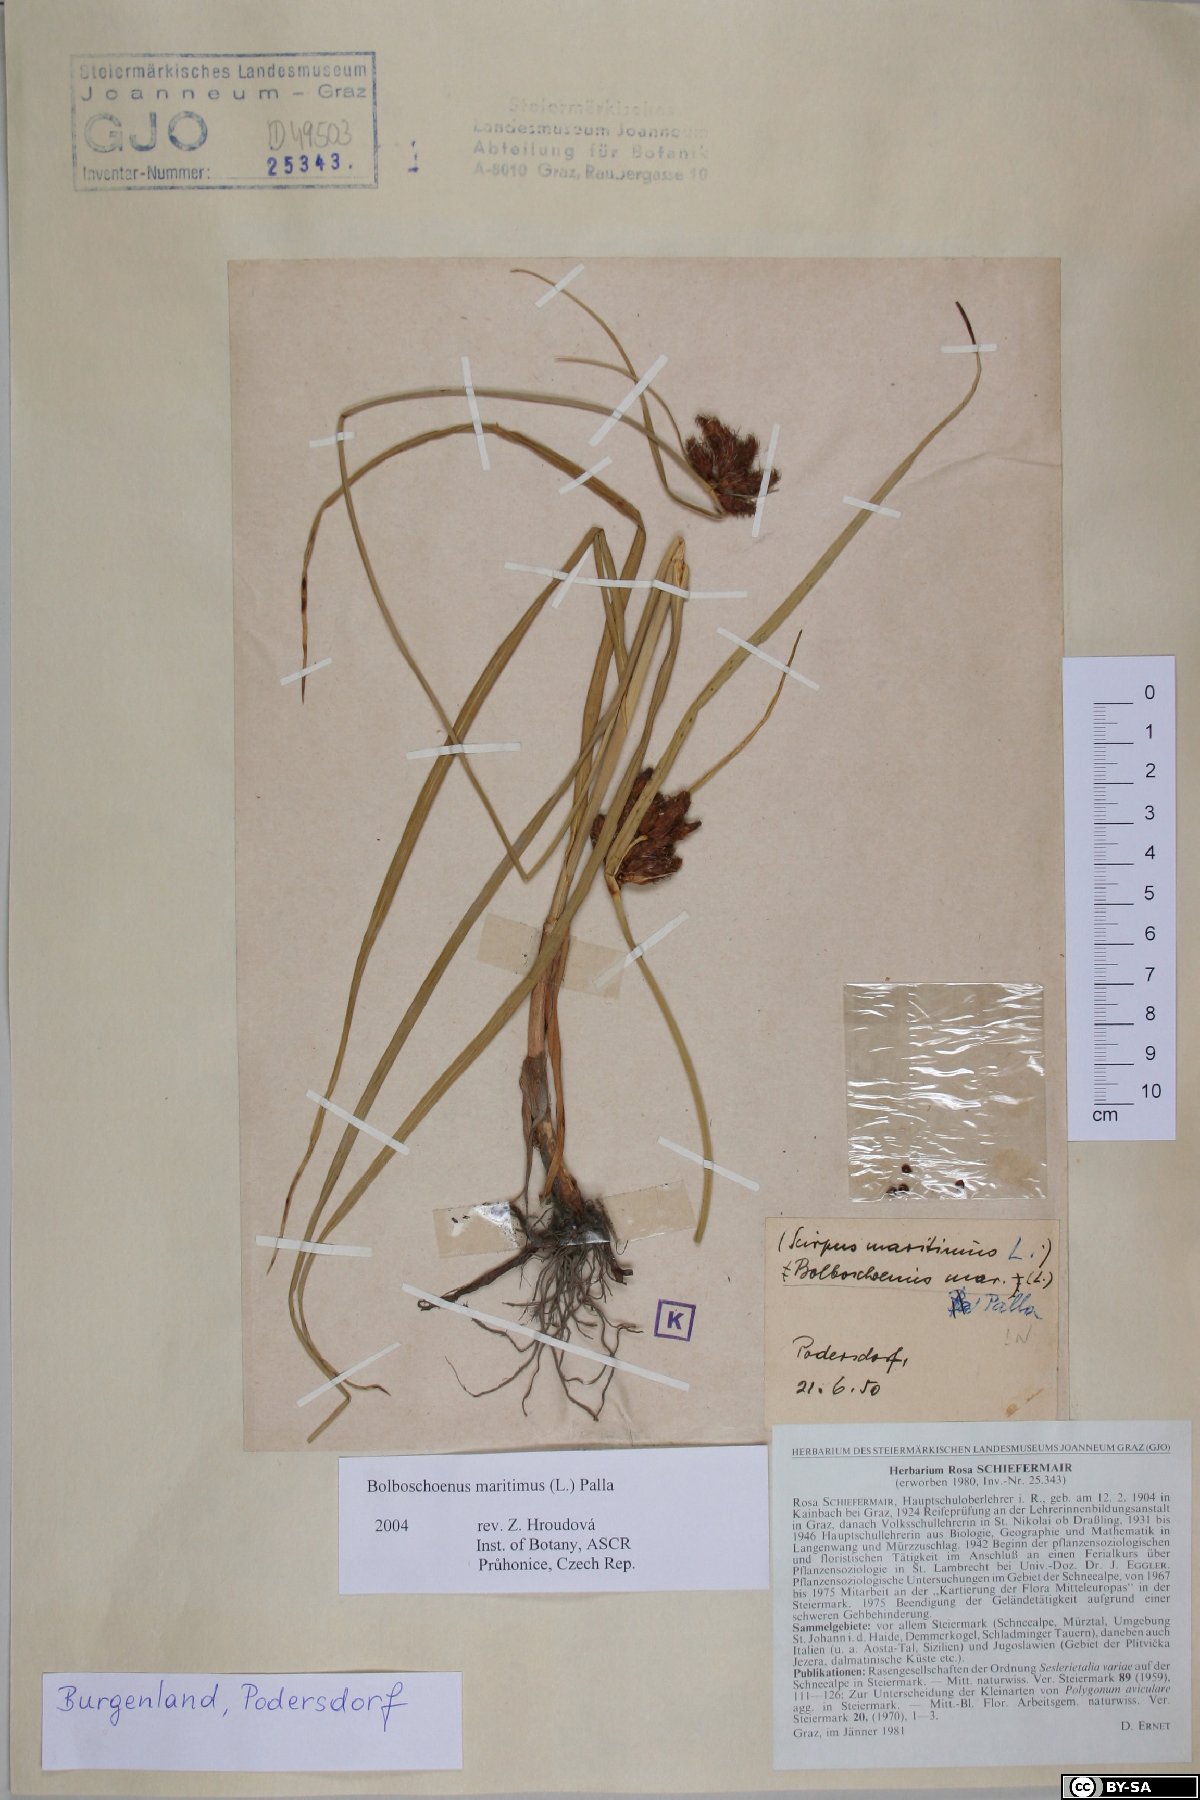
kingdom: Plantae
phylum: Tracheophyta
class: Liliopsida
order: Poales
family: Cyperaceae
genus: Bolboschoenus
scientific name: Bolboschoenus maritimus
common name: Sea club-rush
